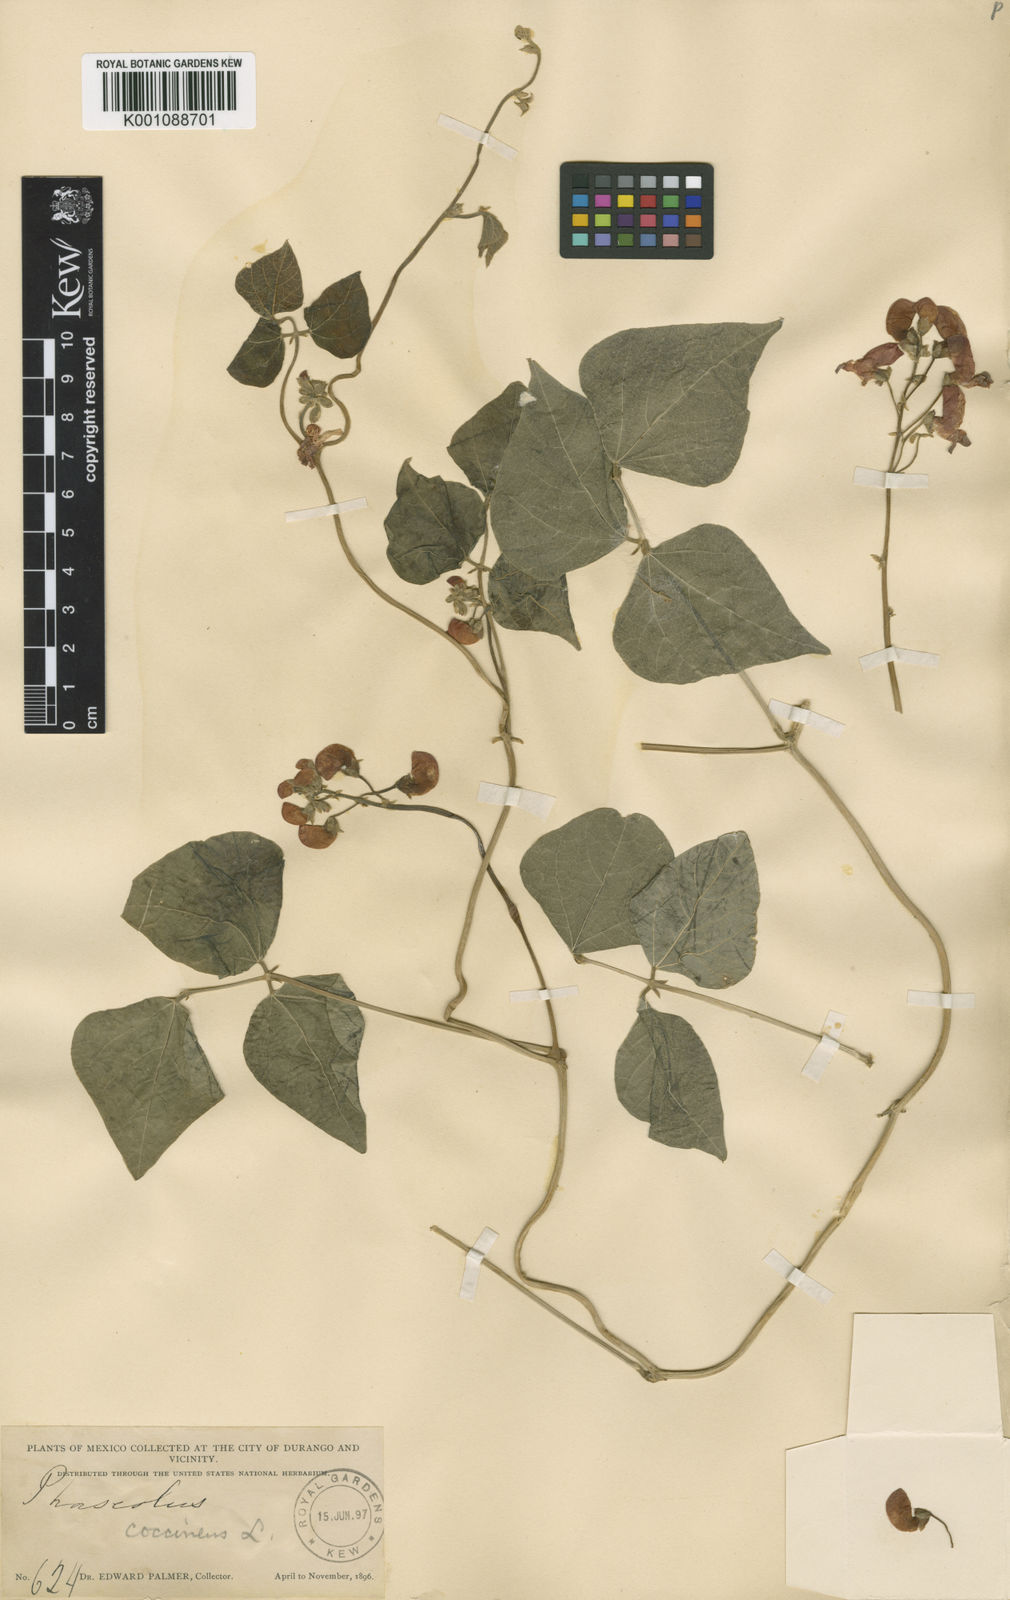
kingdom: Plantae
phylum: Tracheophyta
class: Magnoliopsida
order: Fabales
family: Fabaceae
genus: Phaseolus
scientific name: Phaseolus coccineus
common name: Runner bean
